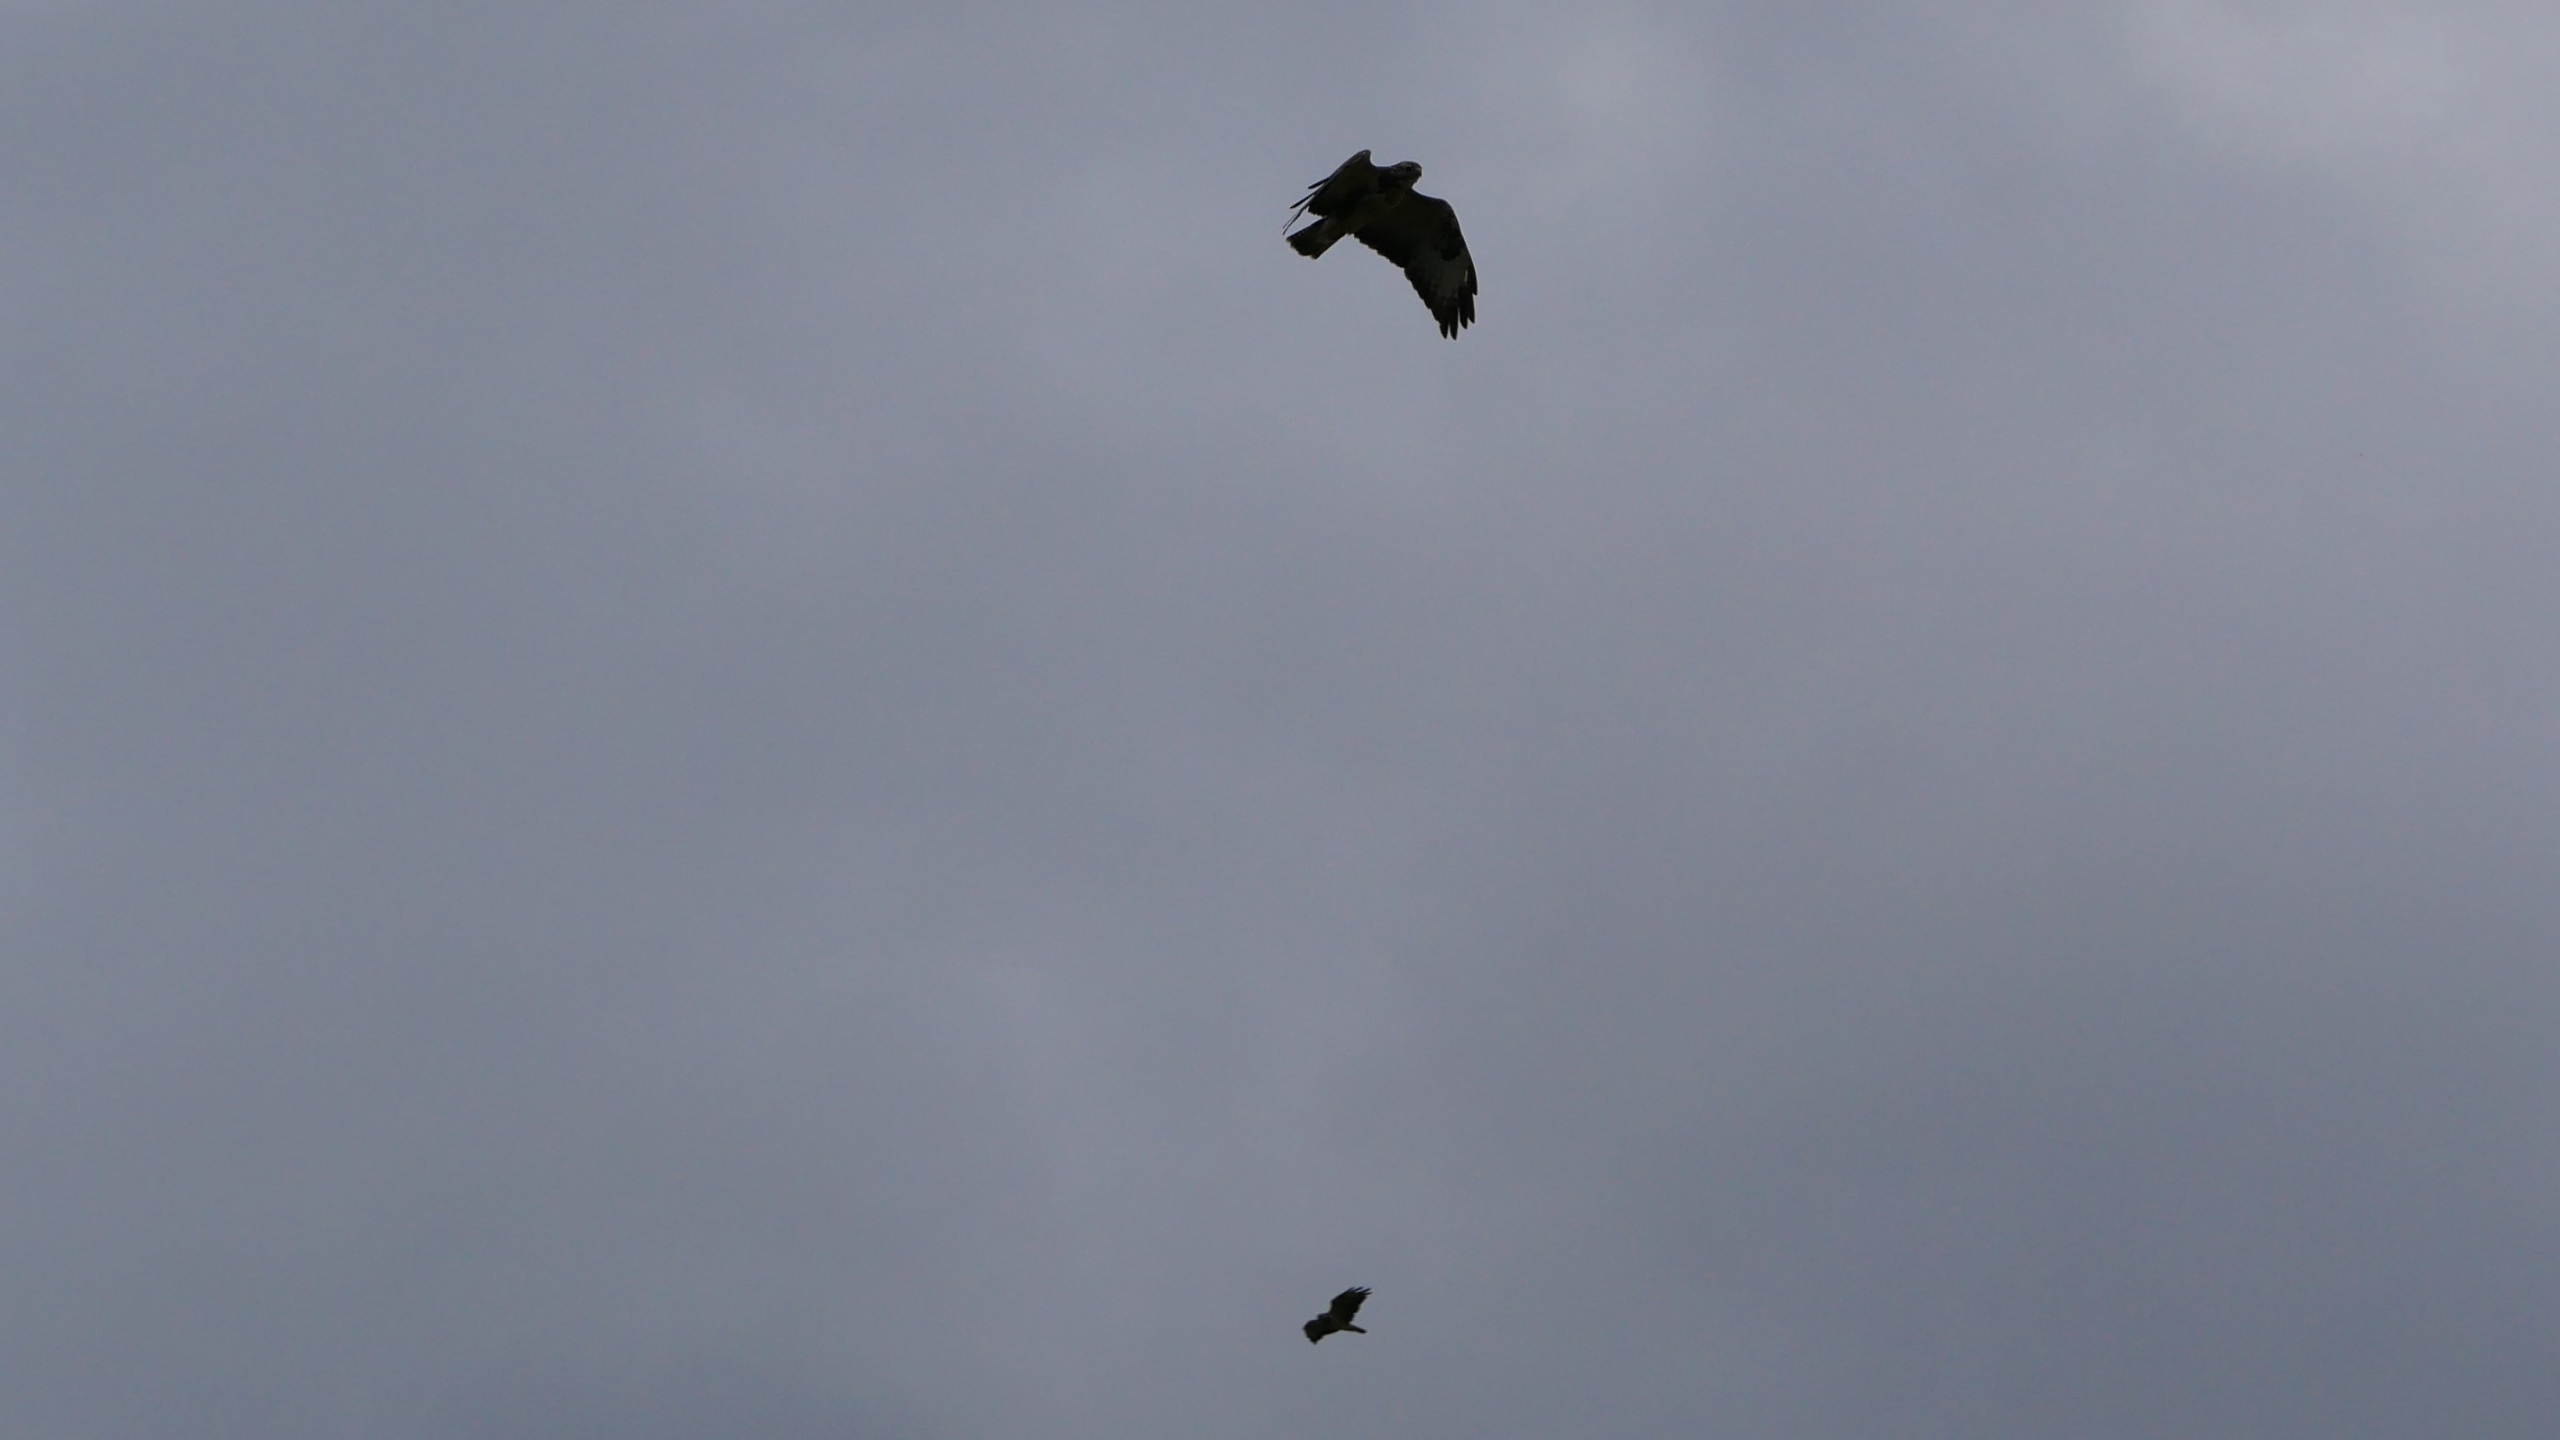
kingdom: Animalia
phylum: Chordata
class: Aves
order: Accipitriformes
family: Accipitridae
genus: Buteo
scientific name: Buteo buteo
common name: Musvåge
